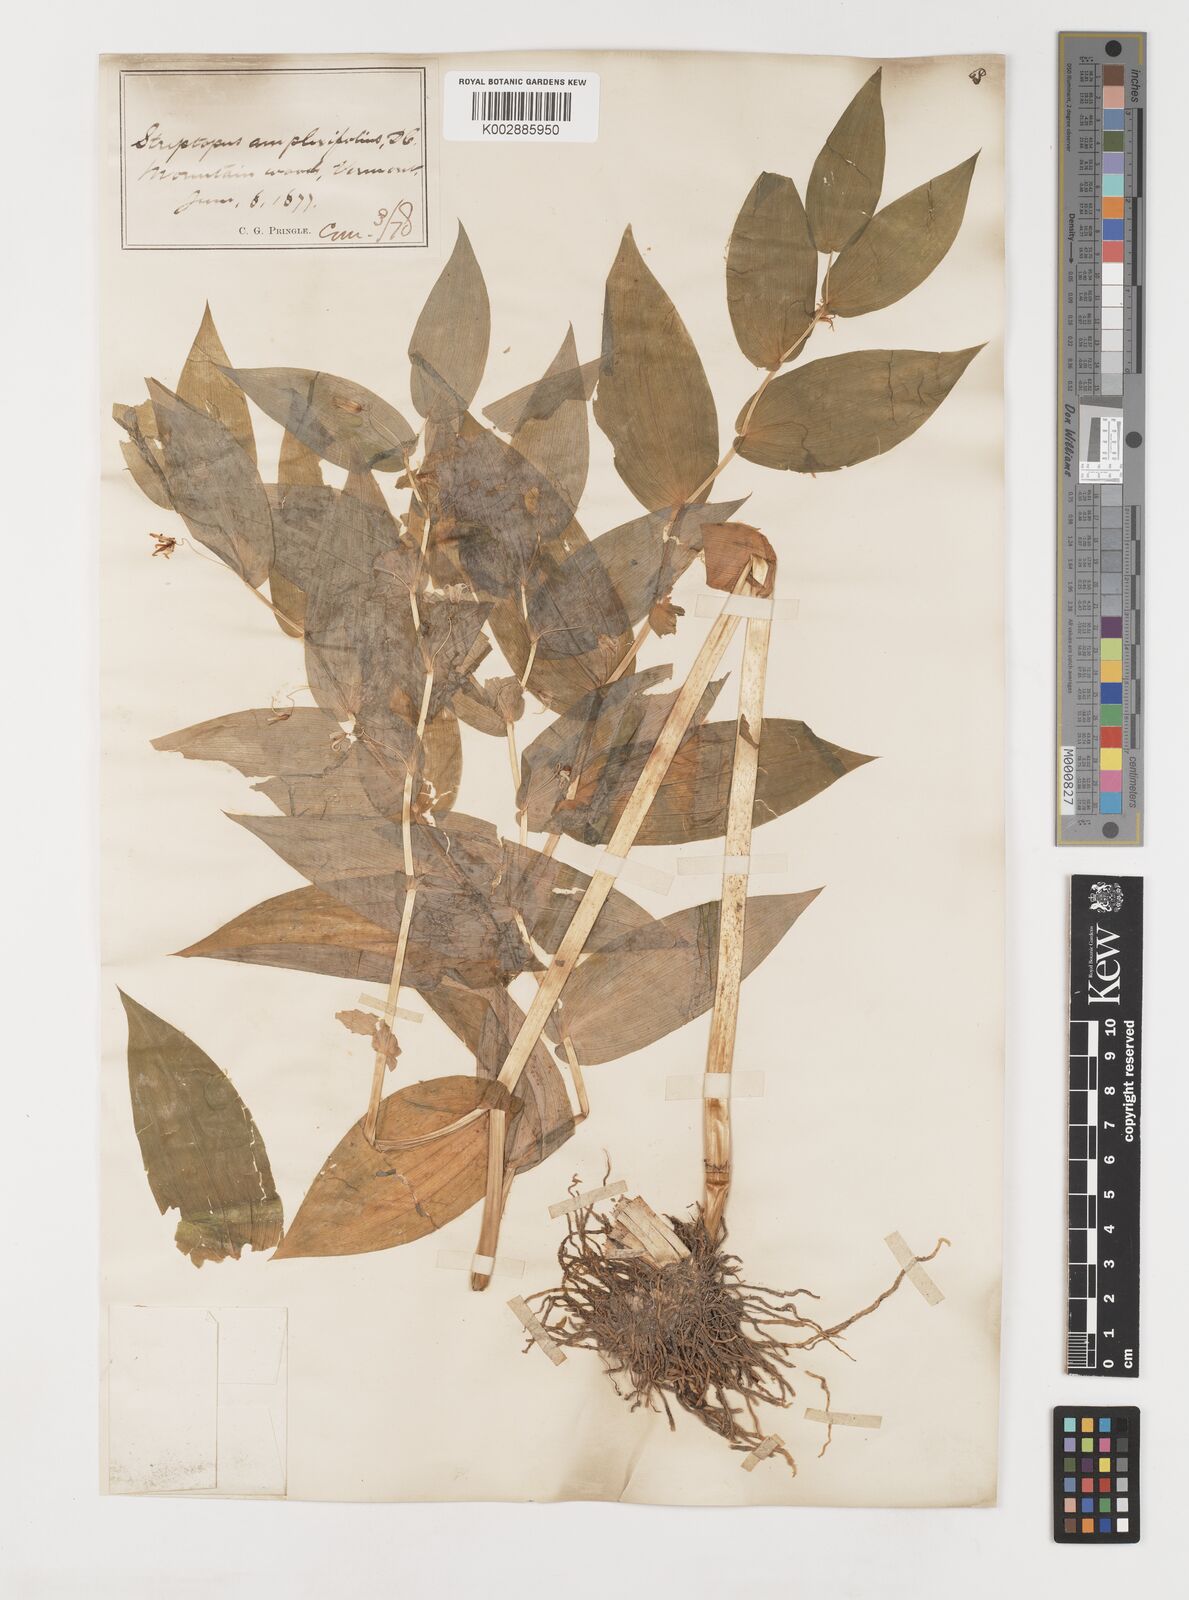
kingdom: Plantae
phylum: Tracheophyta
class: Liliopsida
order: Liliales
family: Liliaceae
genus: Streptopus
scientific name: Streptopus amplexifolius
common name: Clasp twisted stalk
